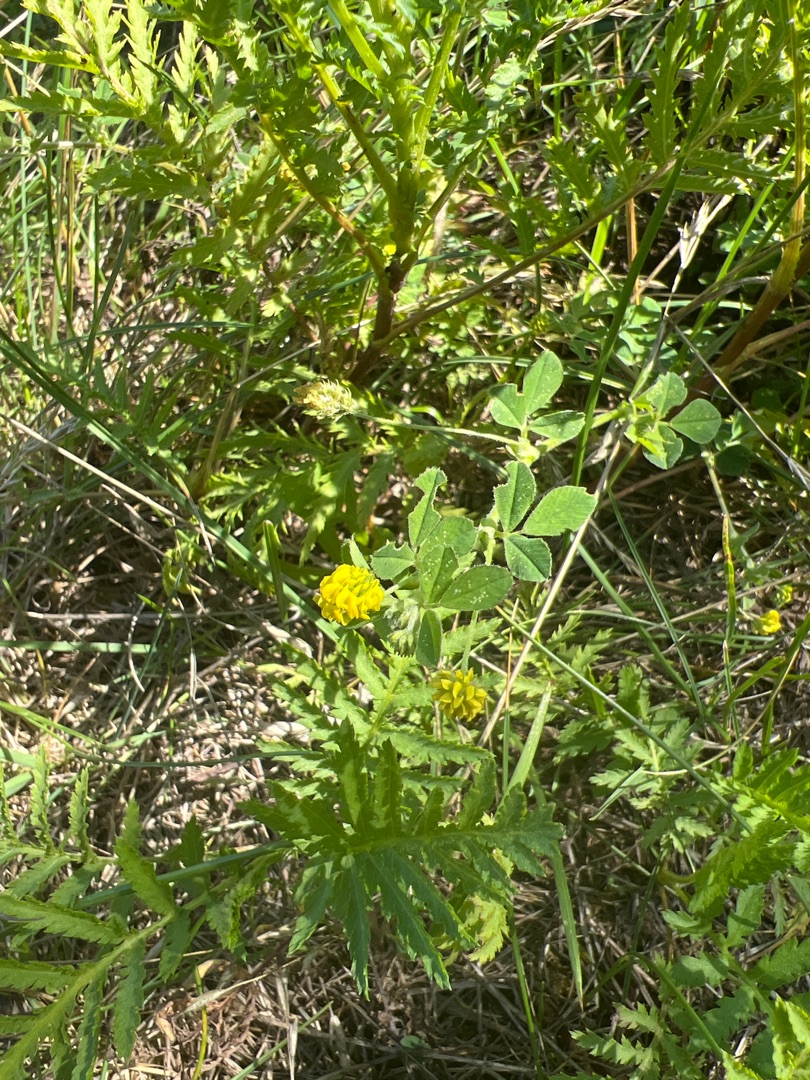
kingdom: Plantae
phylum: Tracheophyta
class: Magnoliopsida
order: Fabales
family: Fabaceae
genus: Medicago
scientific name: Medicago lupulina
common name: Humle-sneglebælg
